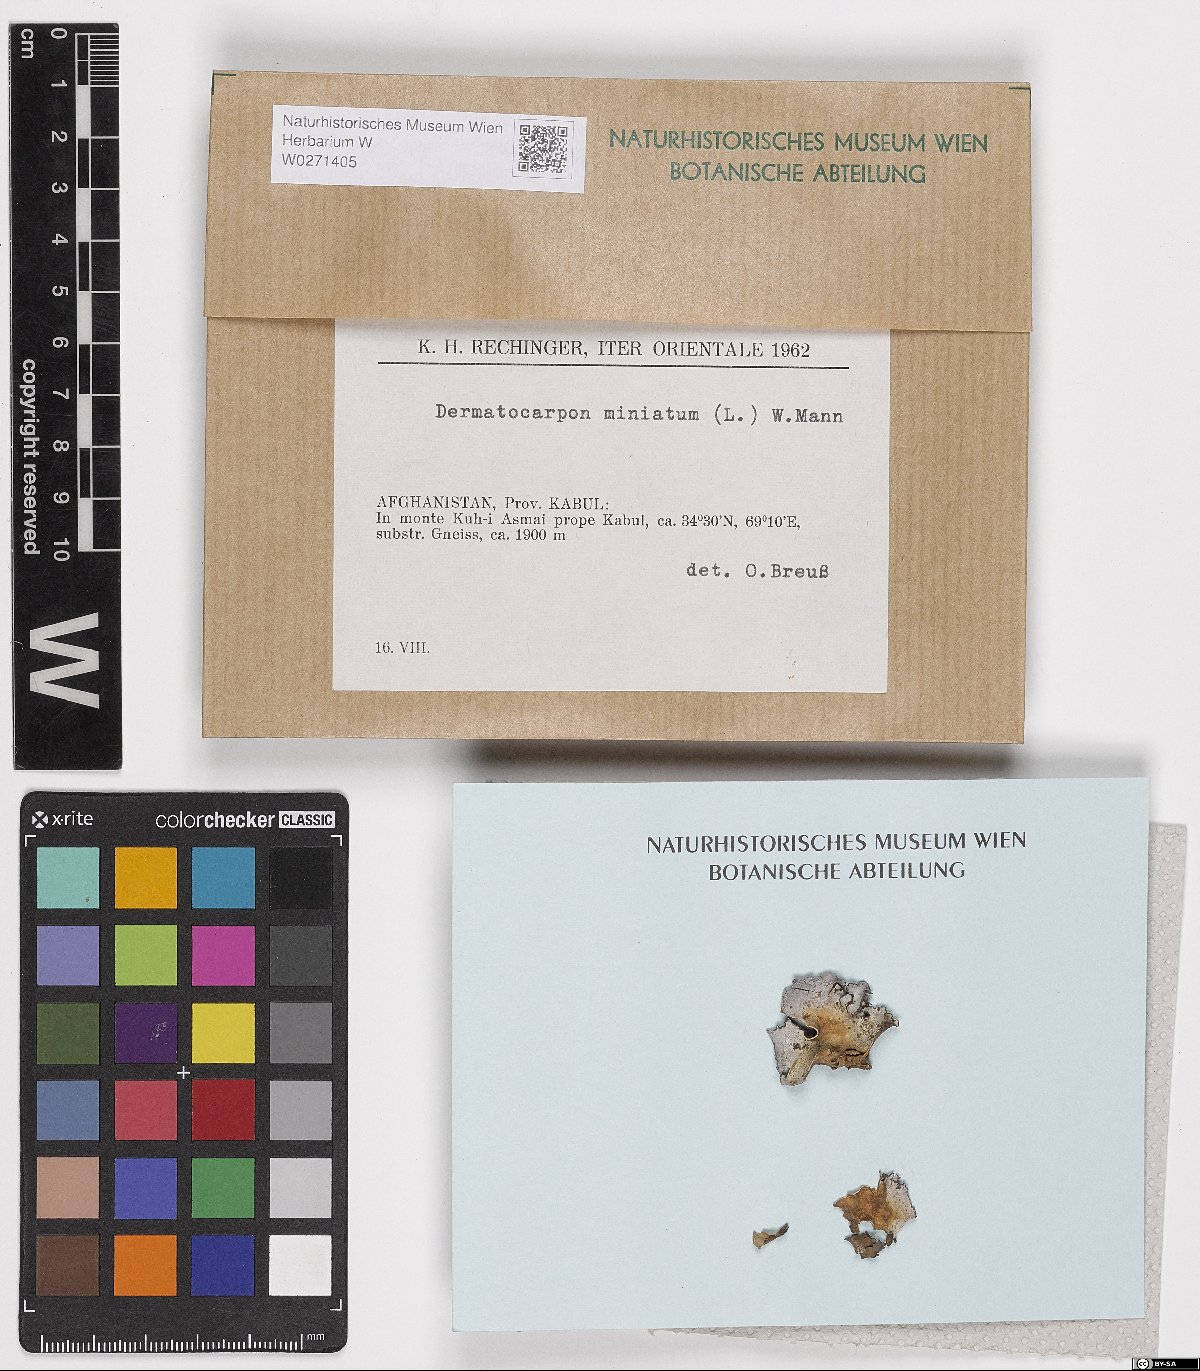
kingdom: Fungi
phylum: Ascomycota
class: Eurotiomycetes
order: Verrucariales
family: Verrucariaceae
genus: Dermatocarpon
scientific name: Dermatocarpon miniatum
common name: Leather lichen
